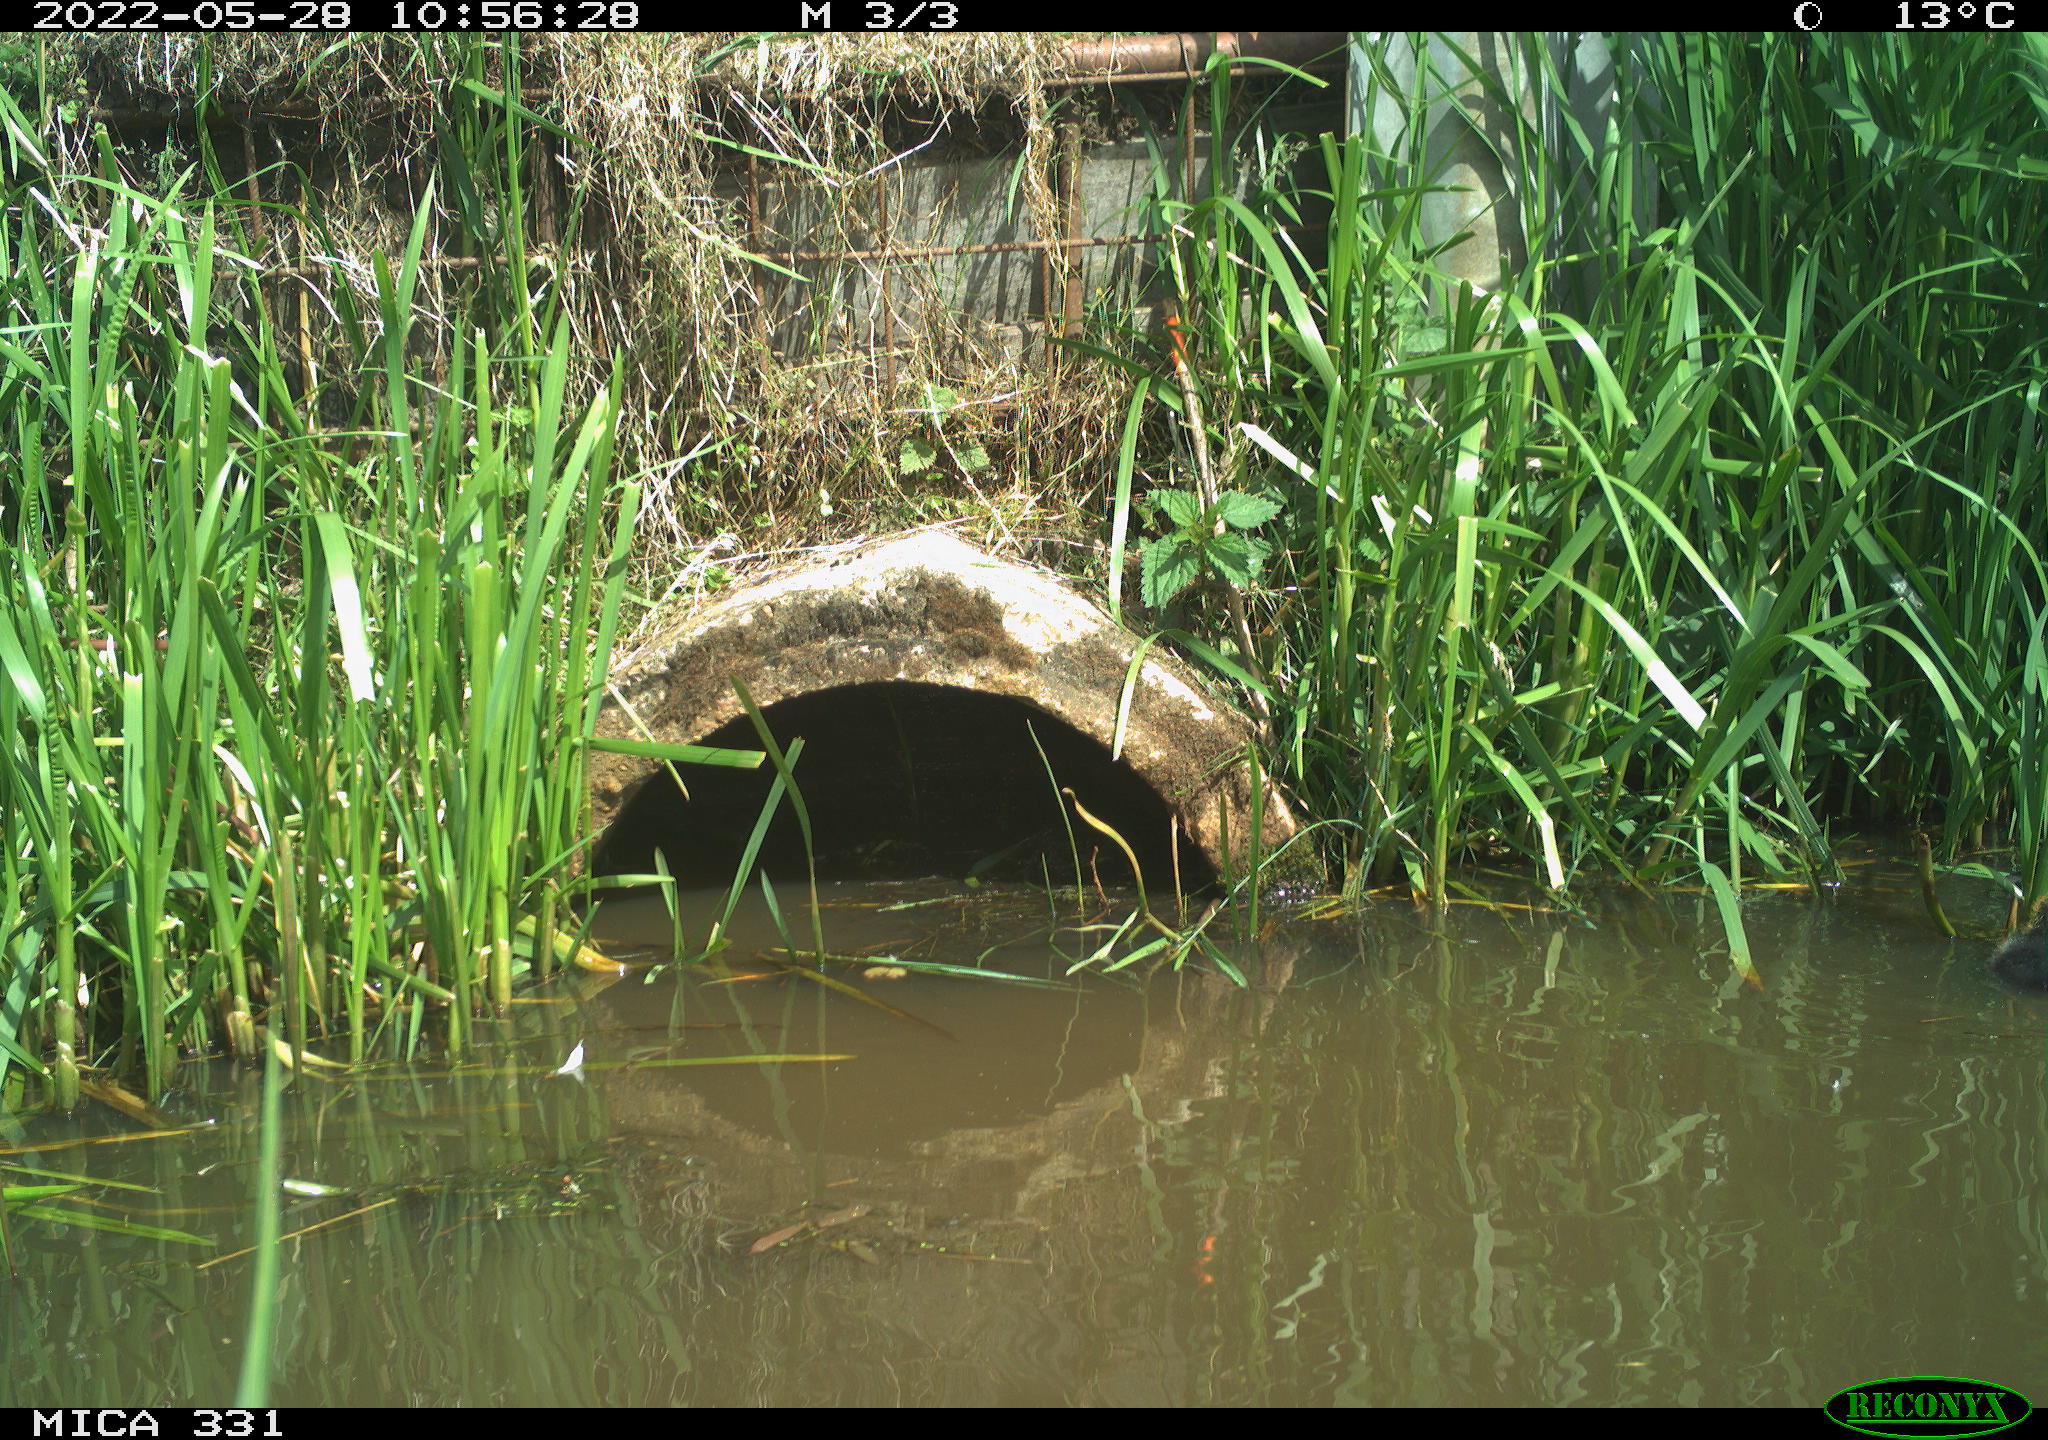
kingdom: Animalia
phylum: Chordata
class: Aves
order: Gruiformes
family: Rallidae
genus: Fulica
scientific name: Fulica atra
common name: Eurasian coot
